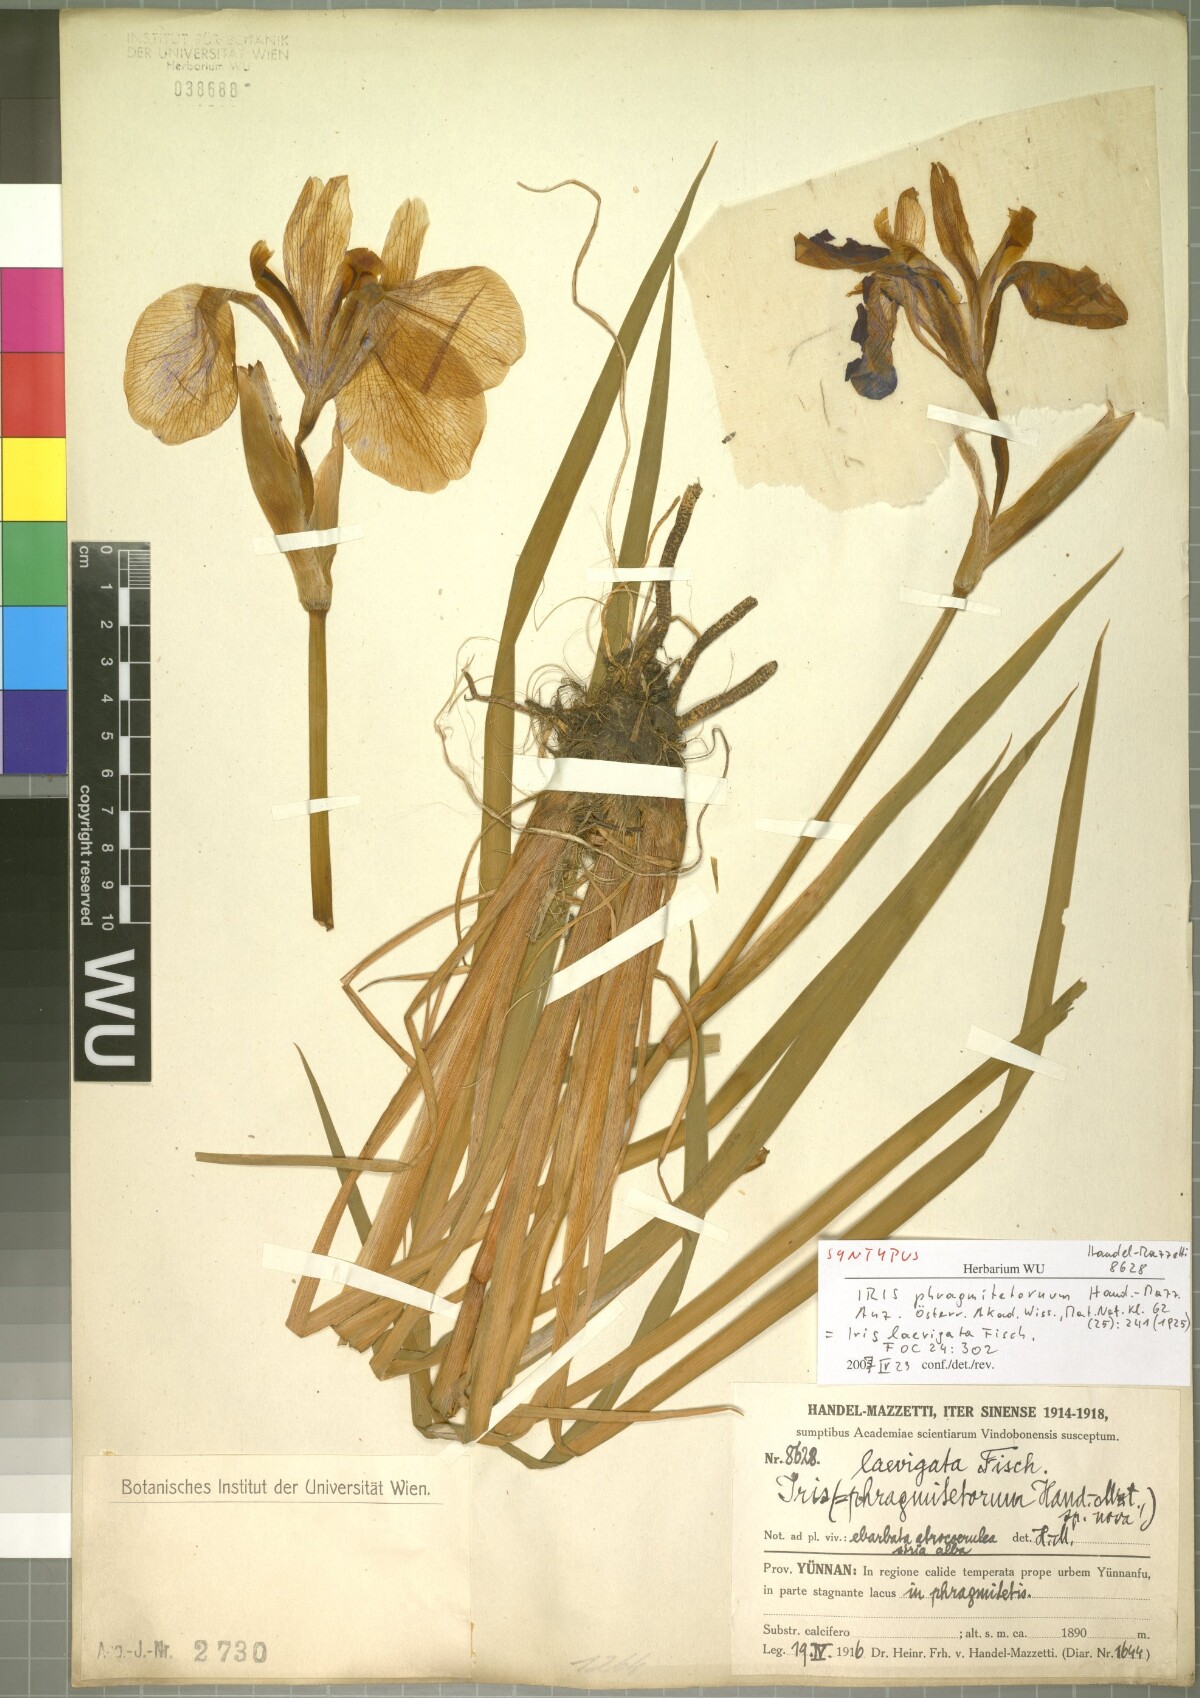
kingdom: Plantae
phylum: Tracheophyta
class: Liliopsida
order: Asparagales
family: Iridaceae
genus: Iris
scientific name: Iris laevigata
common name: Japanese iris
